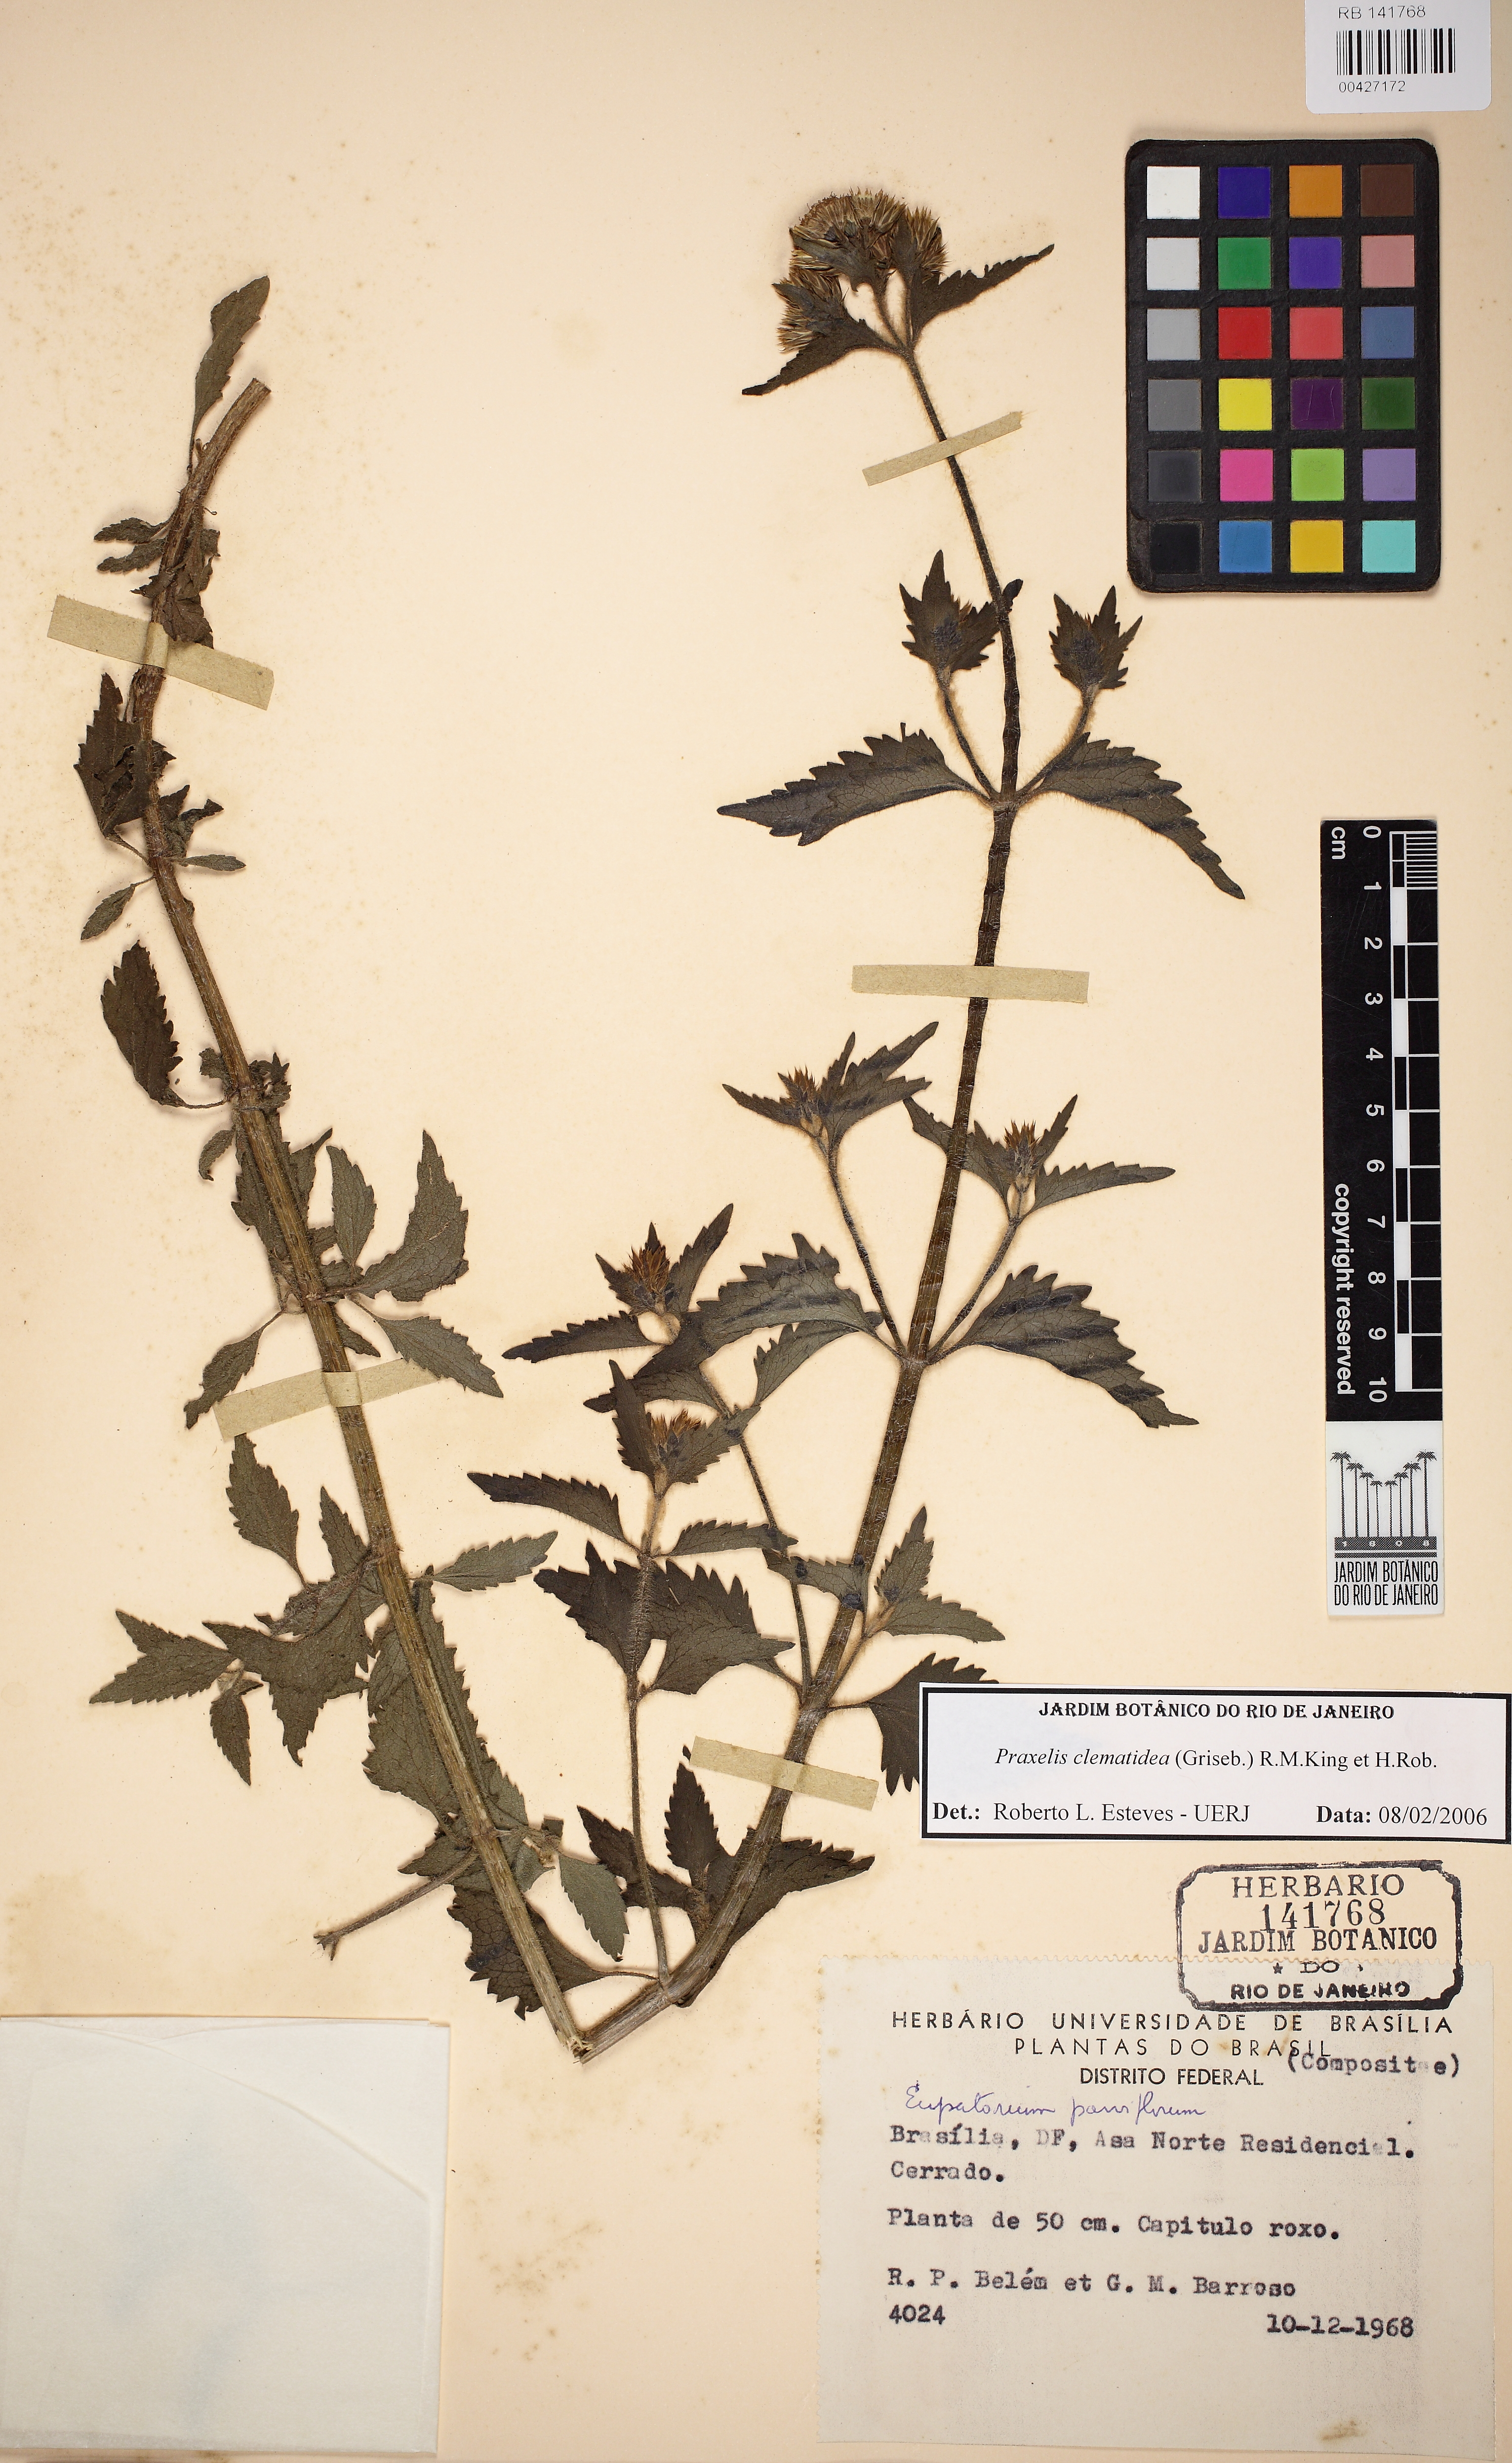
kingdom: Plantae
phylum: Tracheophyta
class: Magnoliopsida
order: Asterales
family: Asteraceae
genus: Praxelis
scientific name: Praxelis clematidea
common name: Praxelis
